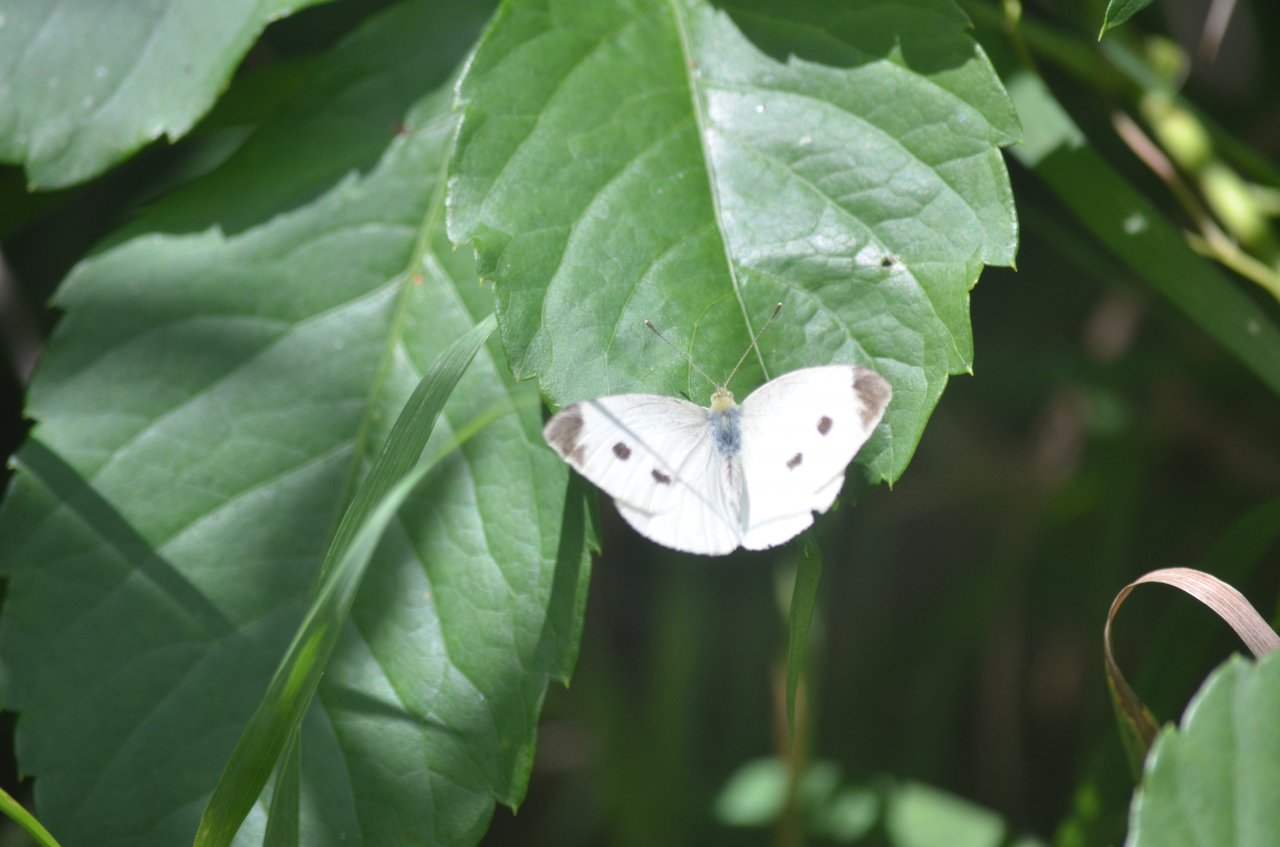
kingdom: Animalia
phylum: Arthropoda
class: Insecta
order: Lepidoptera
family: Pieridae
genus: Pieris
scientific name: Pieris rapae
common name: Cabbage White
